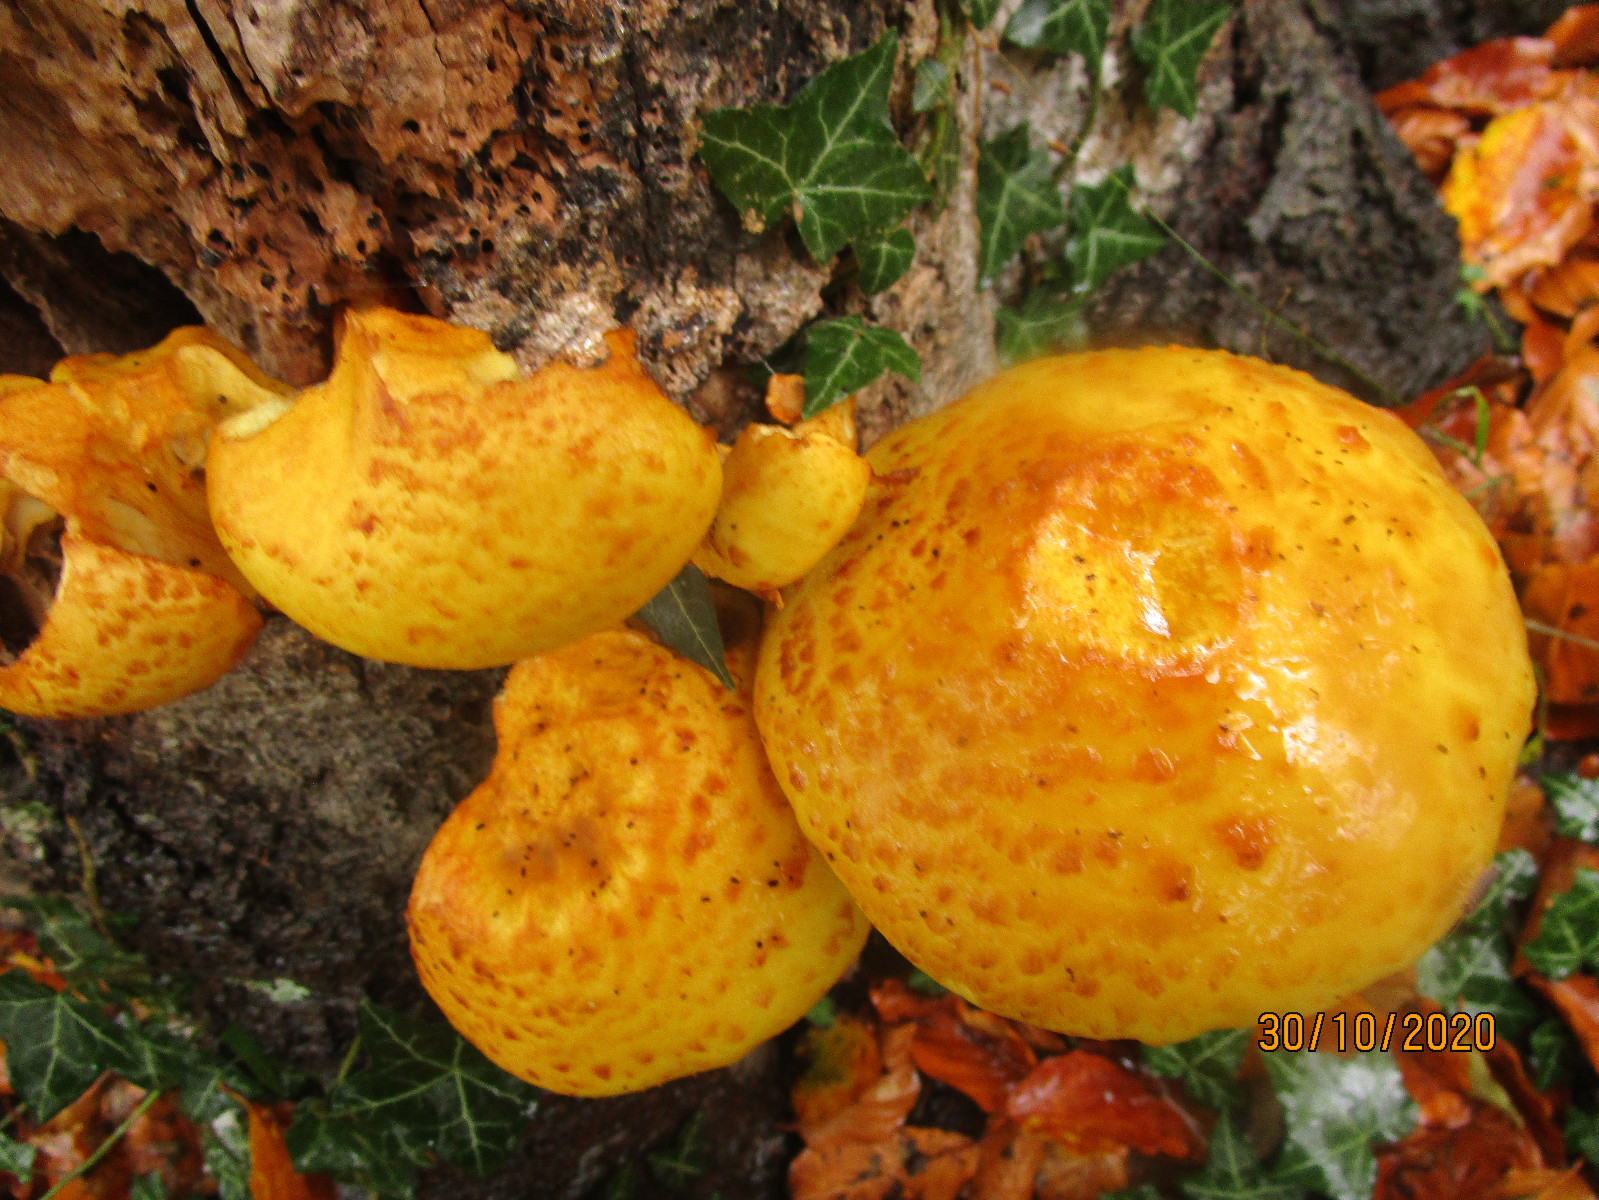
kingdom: Fungi
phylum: Basidiomycota
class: Agaricomycetes
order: Agaricales
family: Strophariaceae
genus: Pholiota
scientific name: Pholiota adiposa
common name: højtsiddende skælhat
